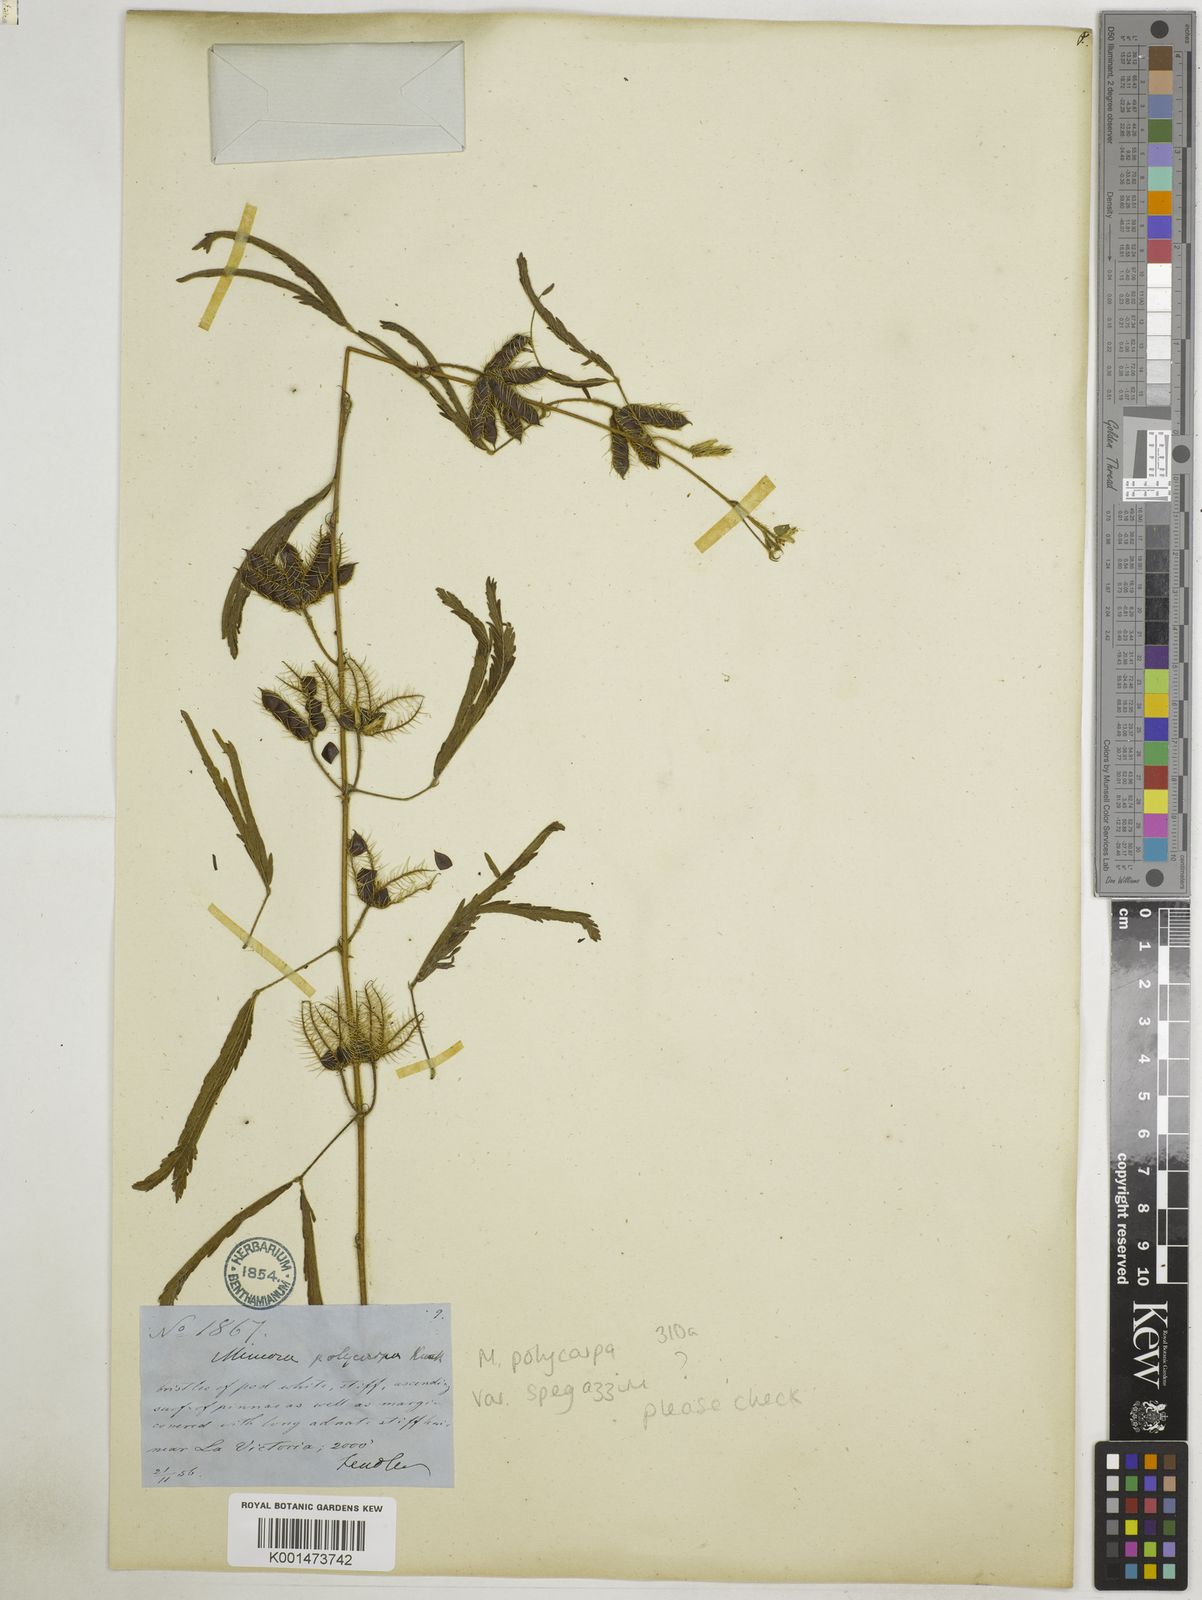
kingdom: Plantae
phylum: Tracheophyta
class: Magnoliopsida
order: Fabales
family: Fabaceae
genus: Mimosa
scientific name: Mimosa polycarpa
